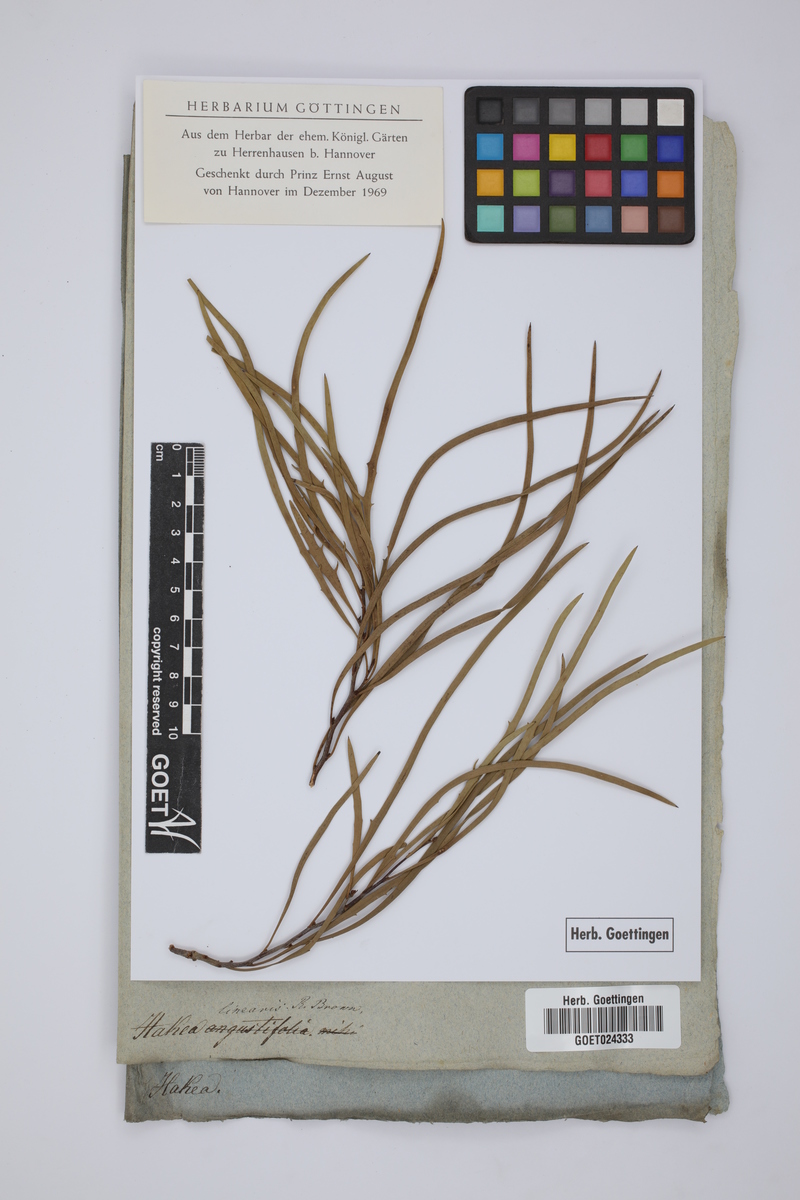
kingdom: Plantae
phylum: Tracheophyta
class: Magnoliopsida
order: Proteales
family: Proteaceae
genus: Hakea
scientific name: Hakea linearis
